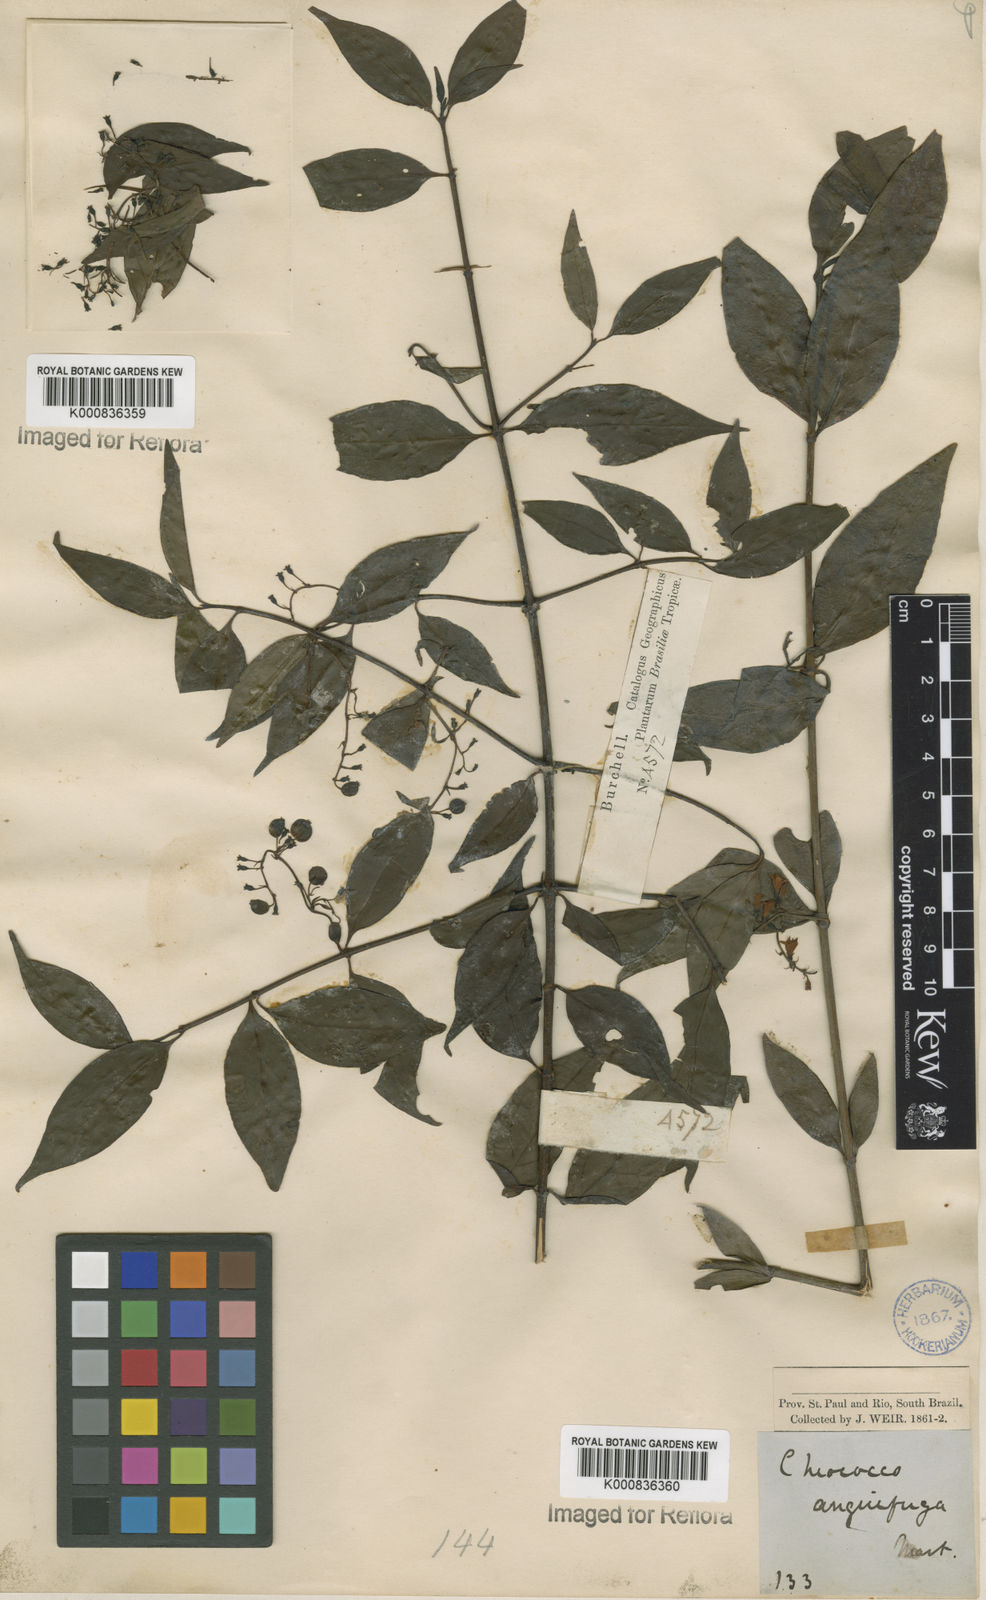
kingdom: Plantae
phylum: Tracheophyta
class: Magnoliopsida
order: Gentianales
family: Rubiaceae
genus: Chiococca
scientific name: Chiococca alba
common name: Snowberry
